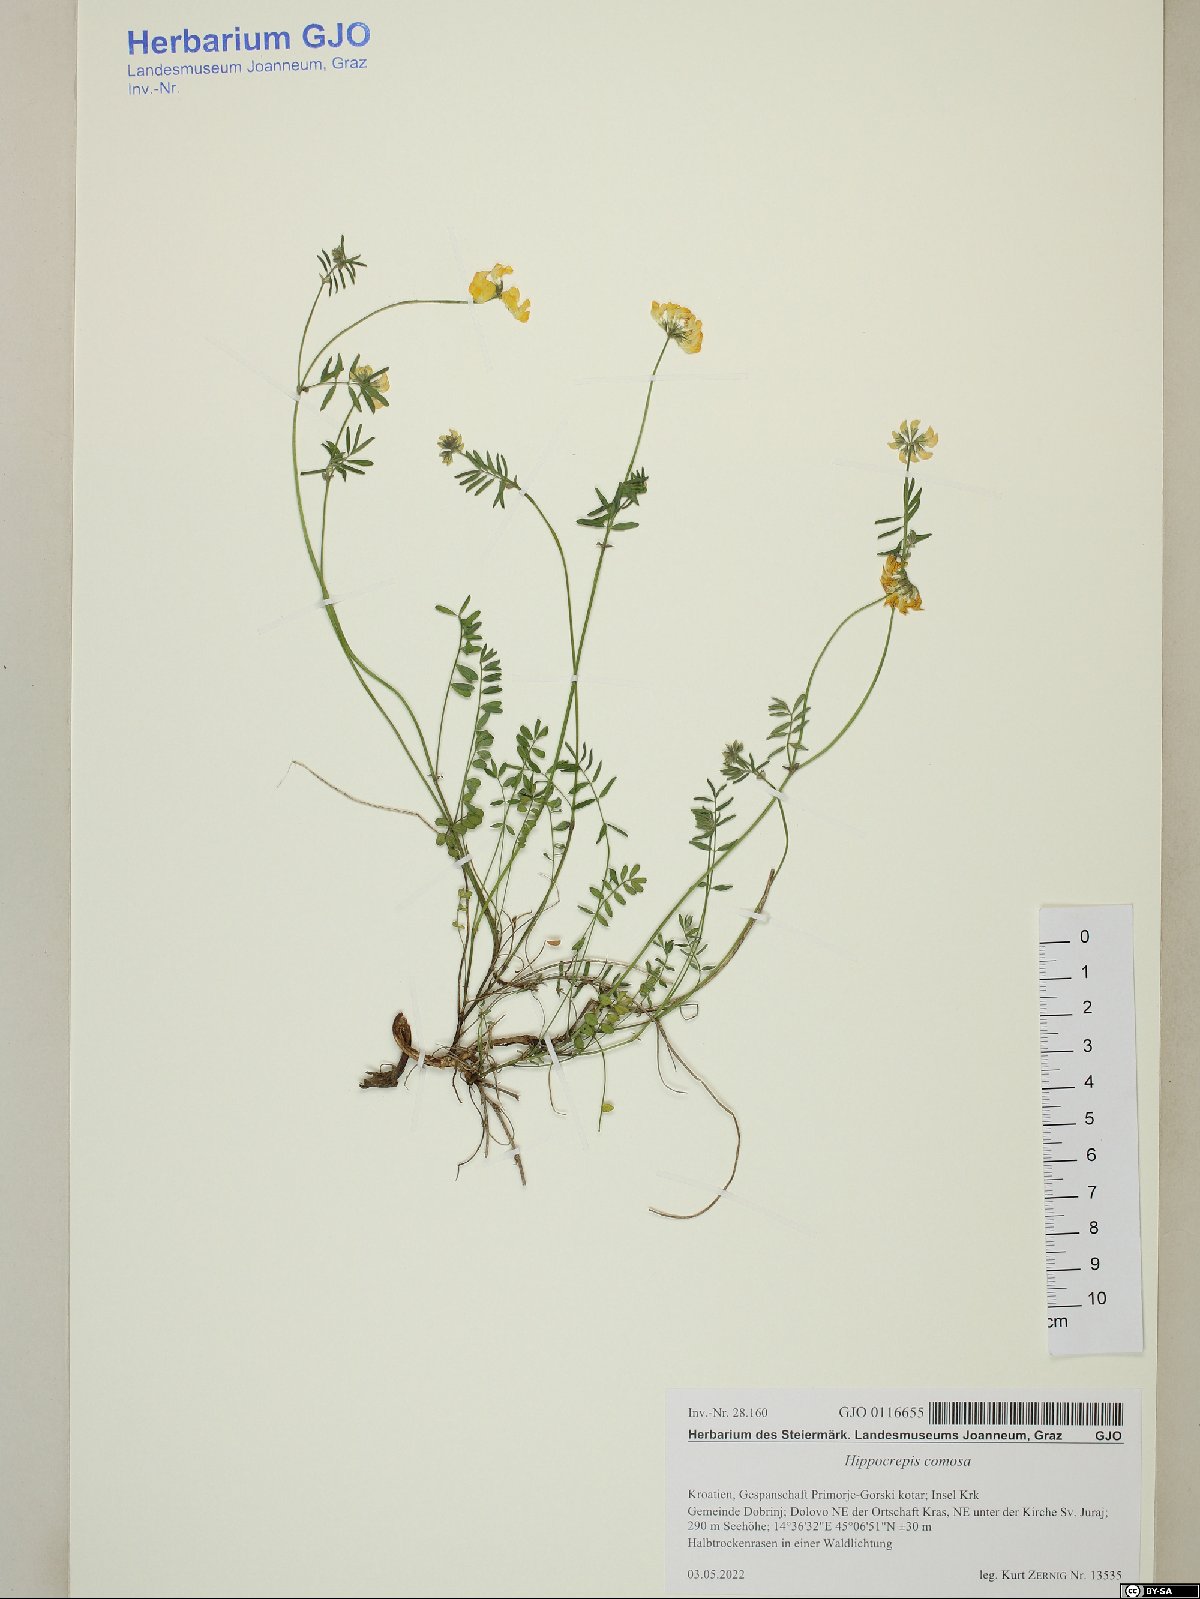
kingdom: Plantae
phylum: Tracheophyta
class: Magnoliopsida
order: Fabales
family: Fabaceae
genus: Hippocrepis
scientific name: Hippocrepis comosa
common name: Horseshoe vetch
